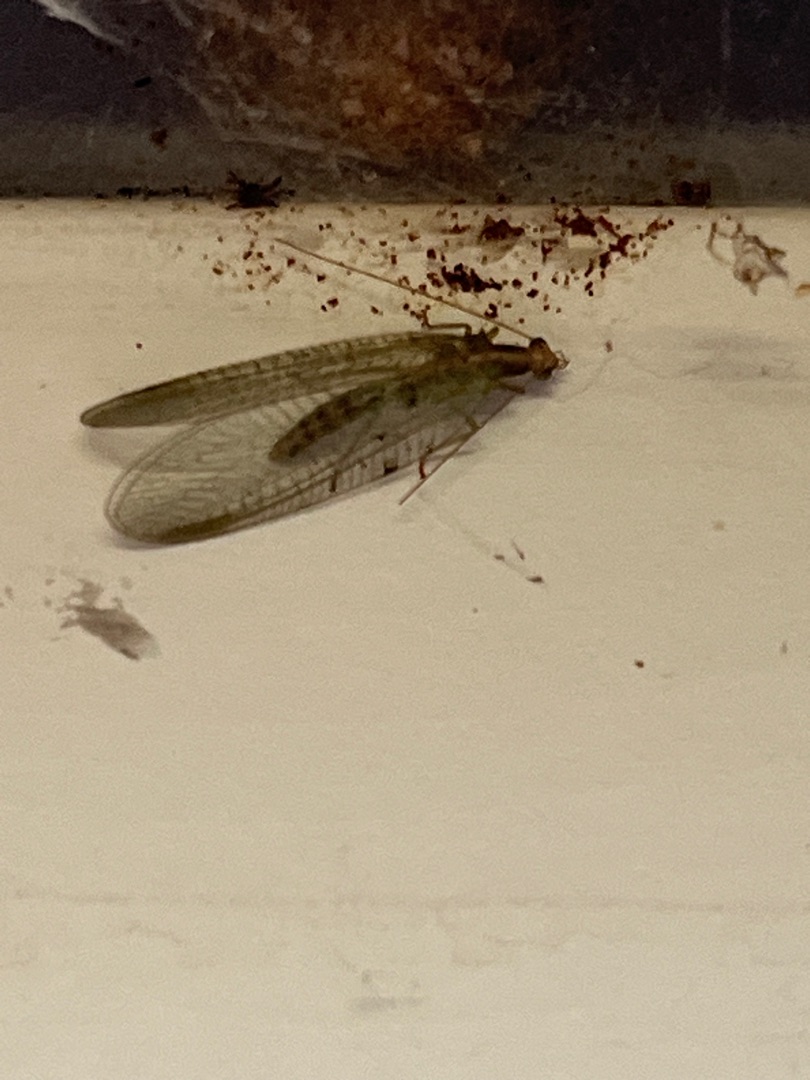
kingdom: Animalia
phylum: Arthropoda
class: Insecta
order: Neuroptera
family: Chrysopidae
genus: Chrysoperla
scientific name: Chrysoperla carnea
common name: Almindelig guldøje
